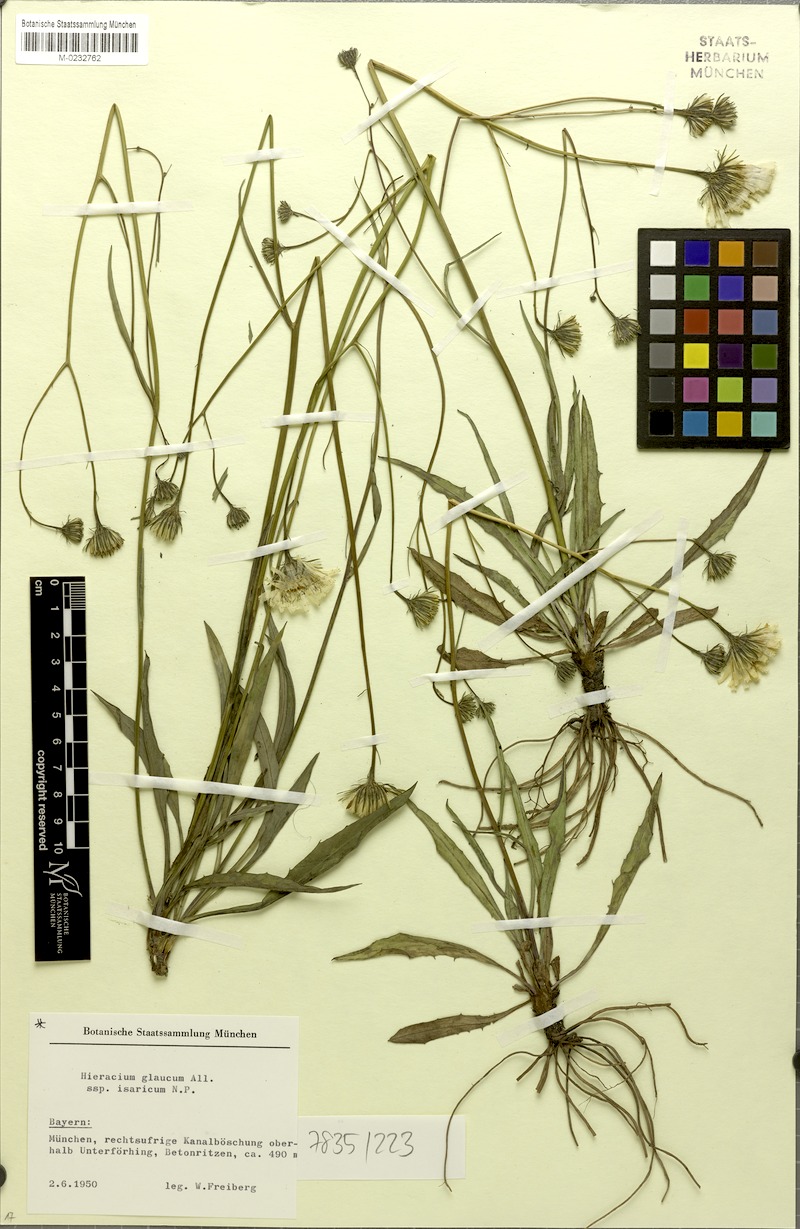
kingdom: Plantae
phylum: Tracheophyta
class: Magnoliopsida
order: Asterales
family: Asteraceae
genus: Hieracium
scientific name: Hieracium glaucum
